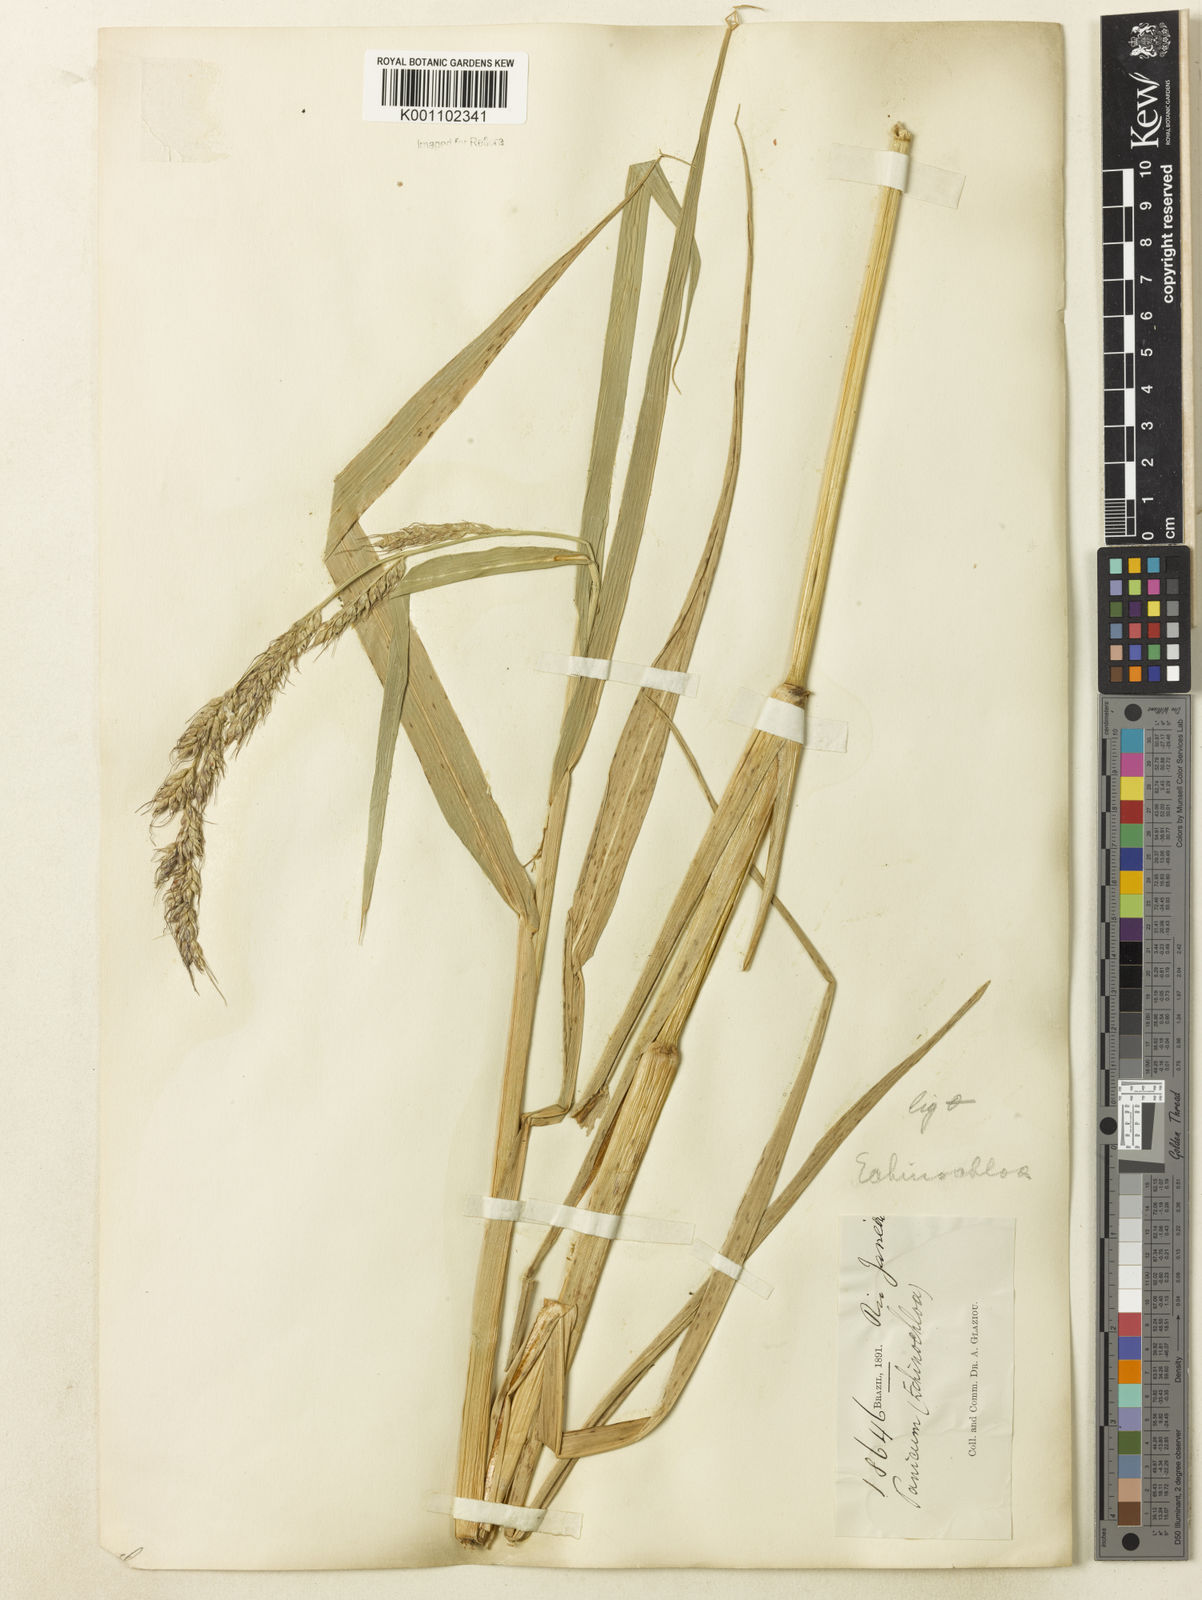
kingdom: Plantae
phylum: Tracheophyta
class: Liliopsida
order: Poales
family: Poaceae
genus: Echinochloa
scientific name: Echinochloa polystachya
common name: Creeping river grass
